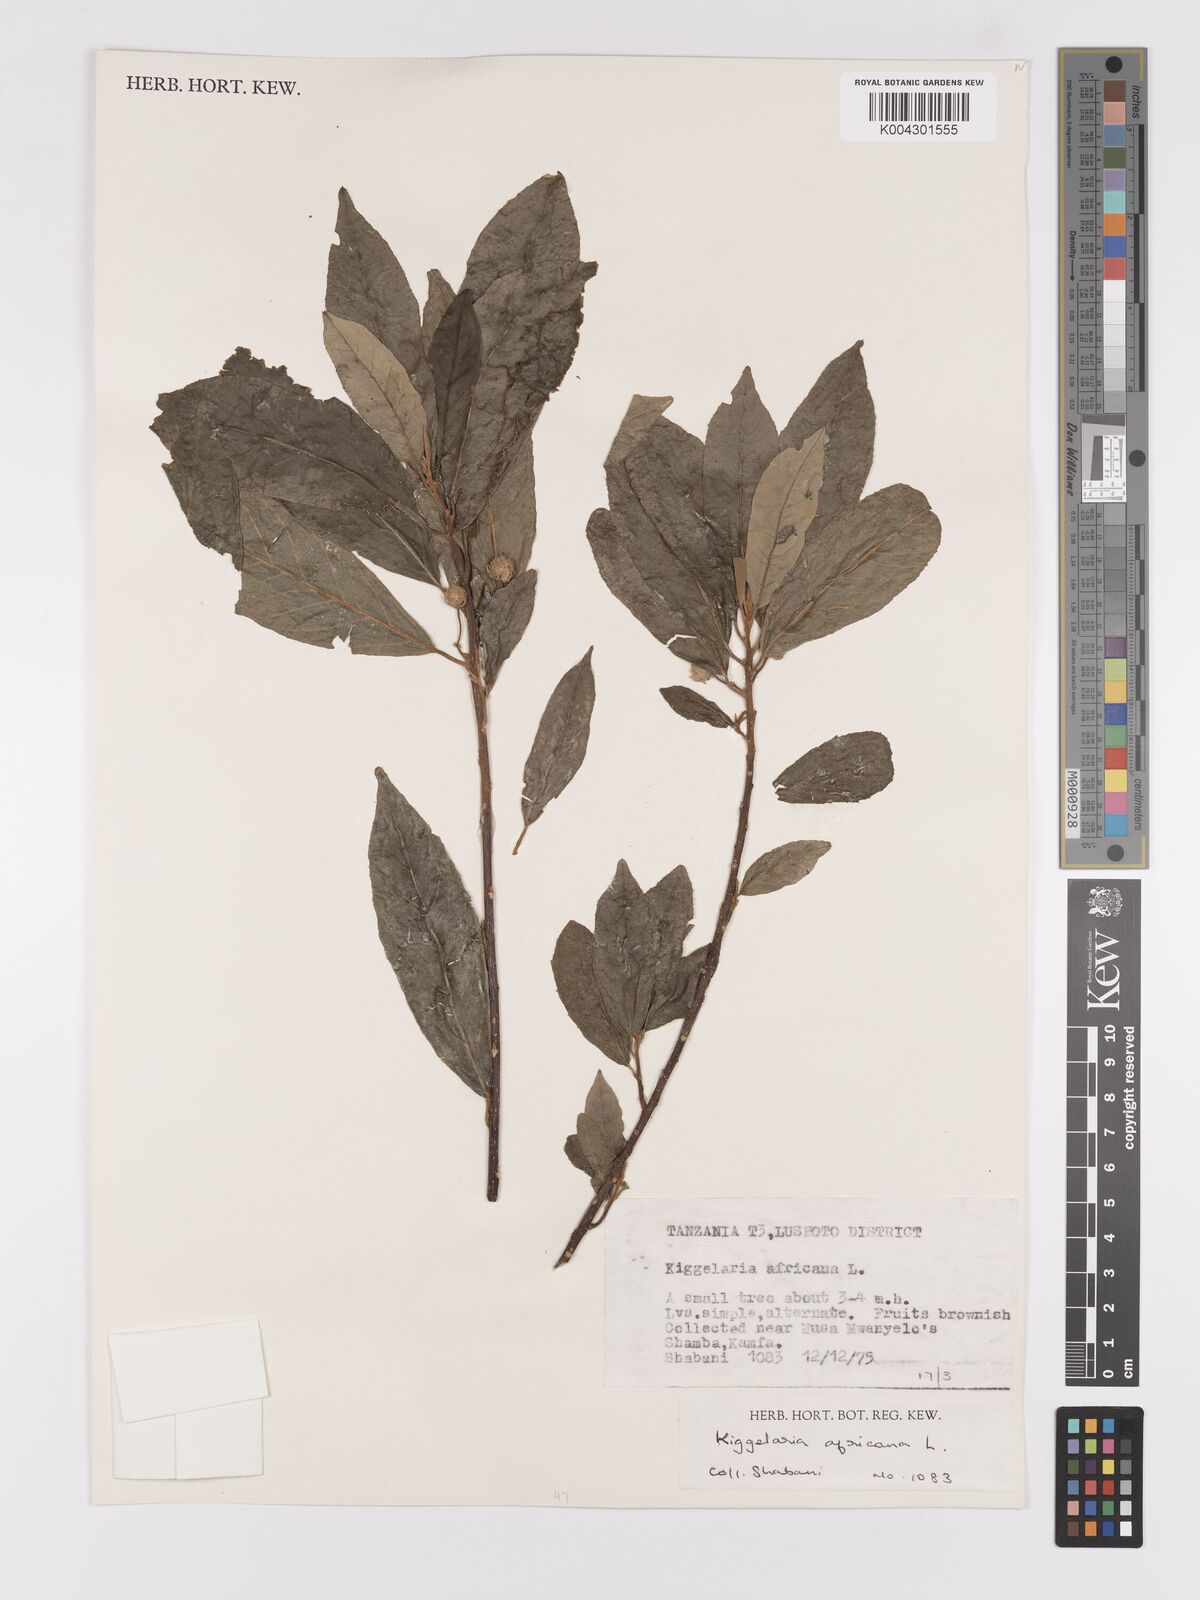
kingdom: Plantae
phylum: Tracheophyta
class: Magnoliopsida
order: Malpighiales
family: Achariaceae
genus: Kiggelaria
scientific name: Kiggelaria africana
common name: Wild peach
